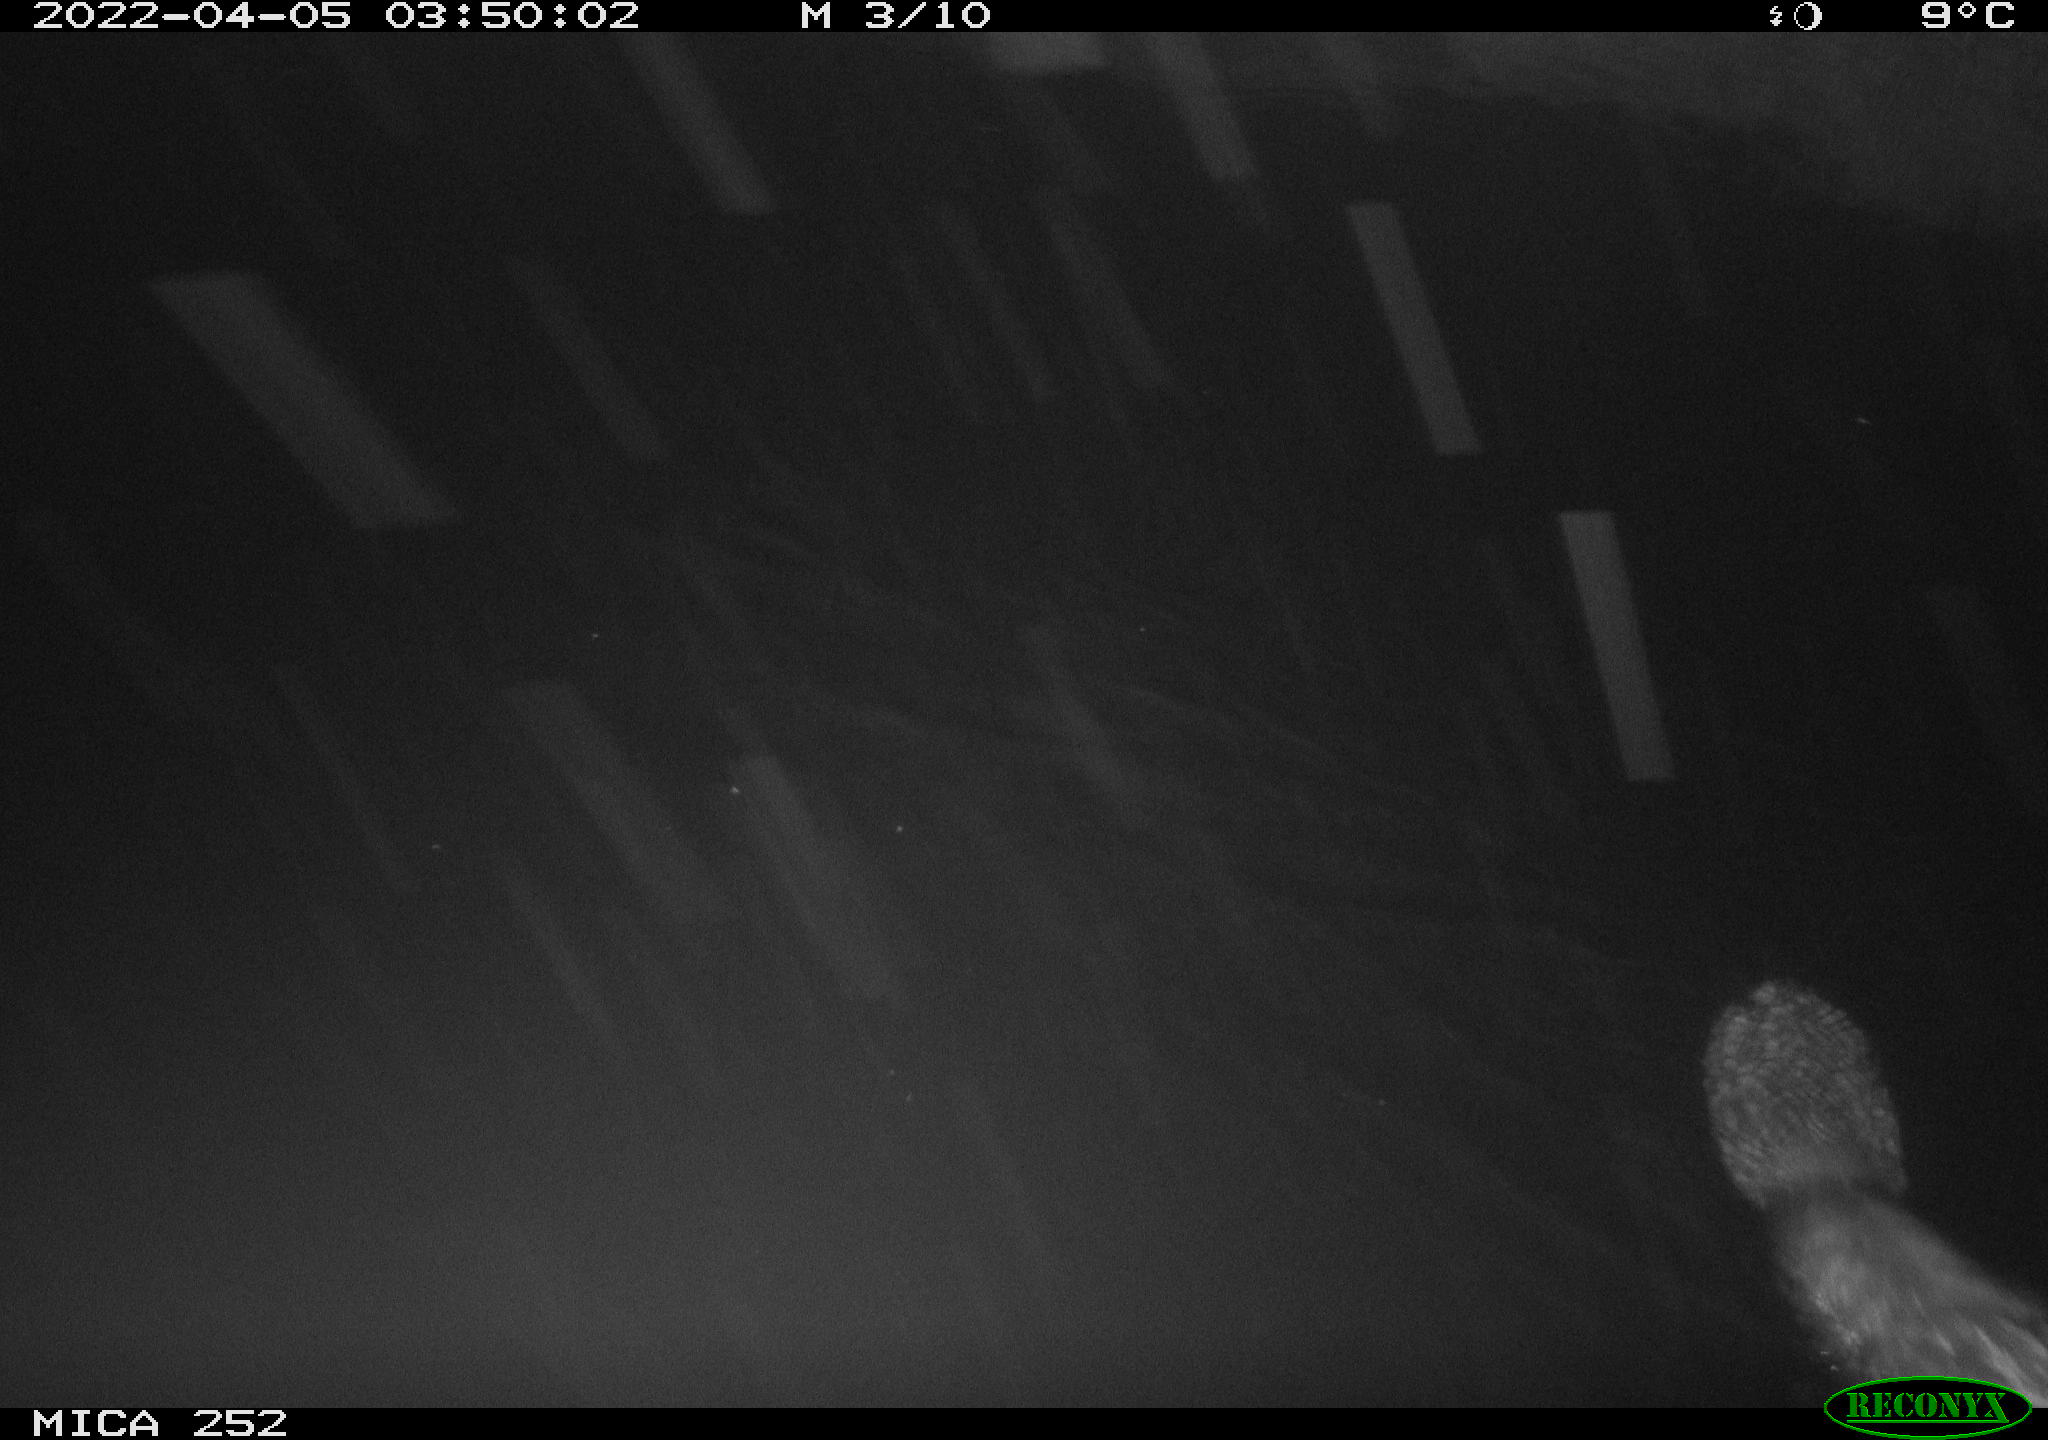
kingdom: Animalia
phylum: Chordata
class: Mammalia
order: Rodentia
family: Castoridae
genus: Castor
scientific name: Castor fiber
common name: Eurasian beaver
